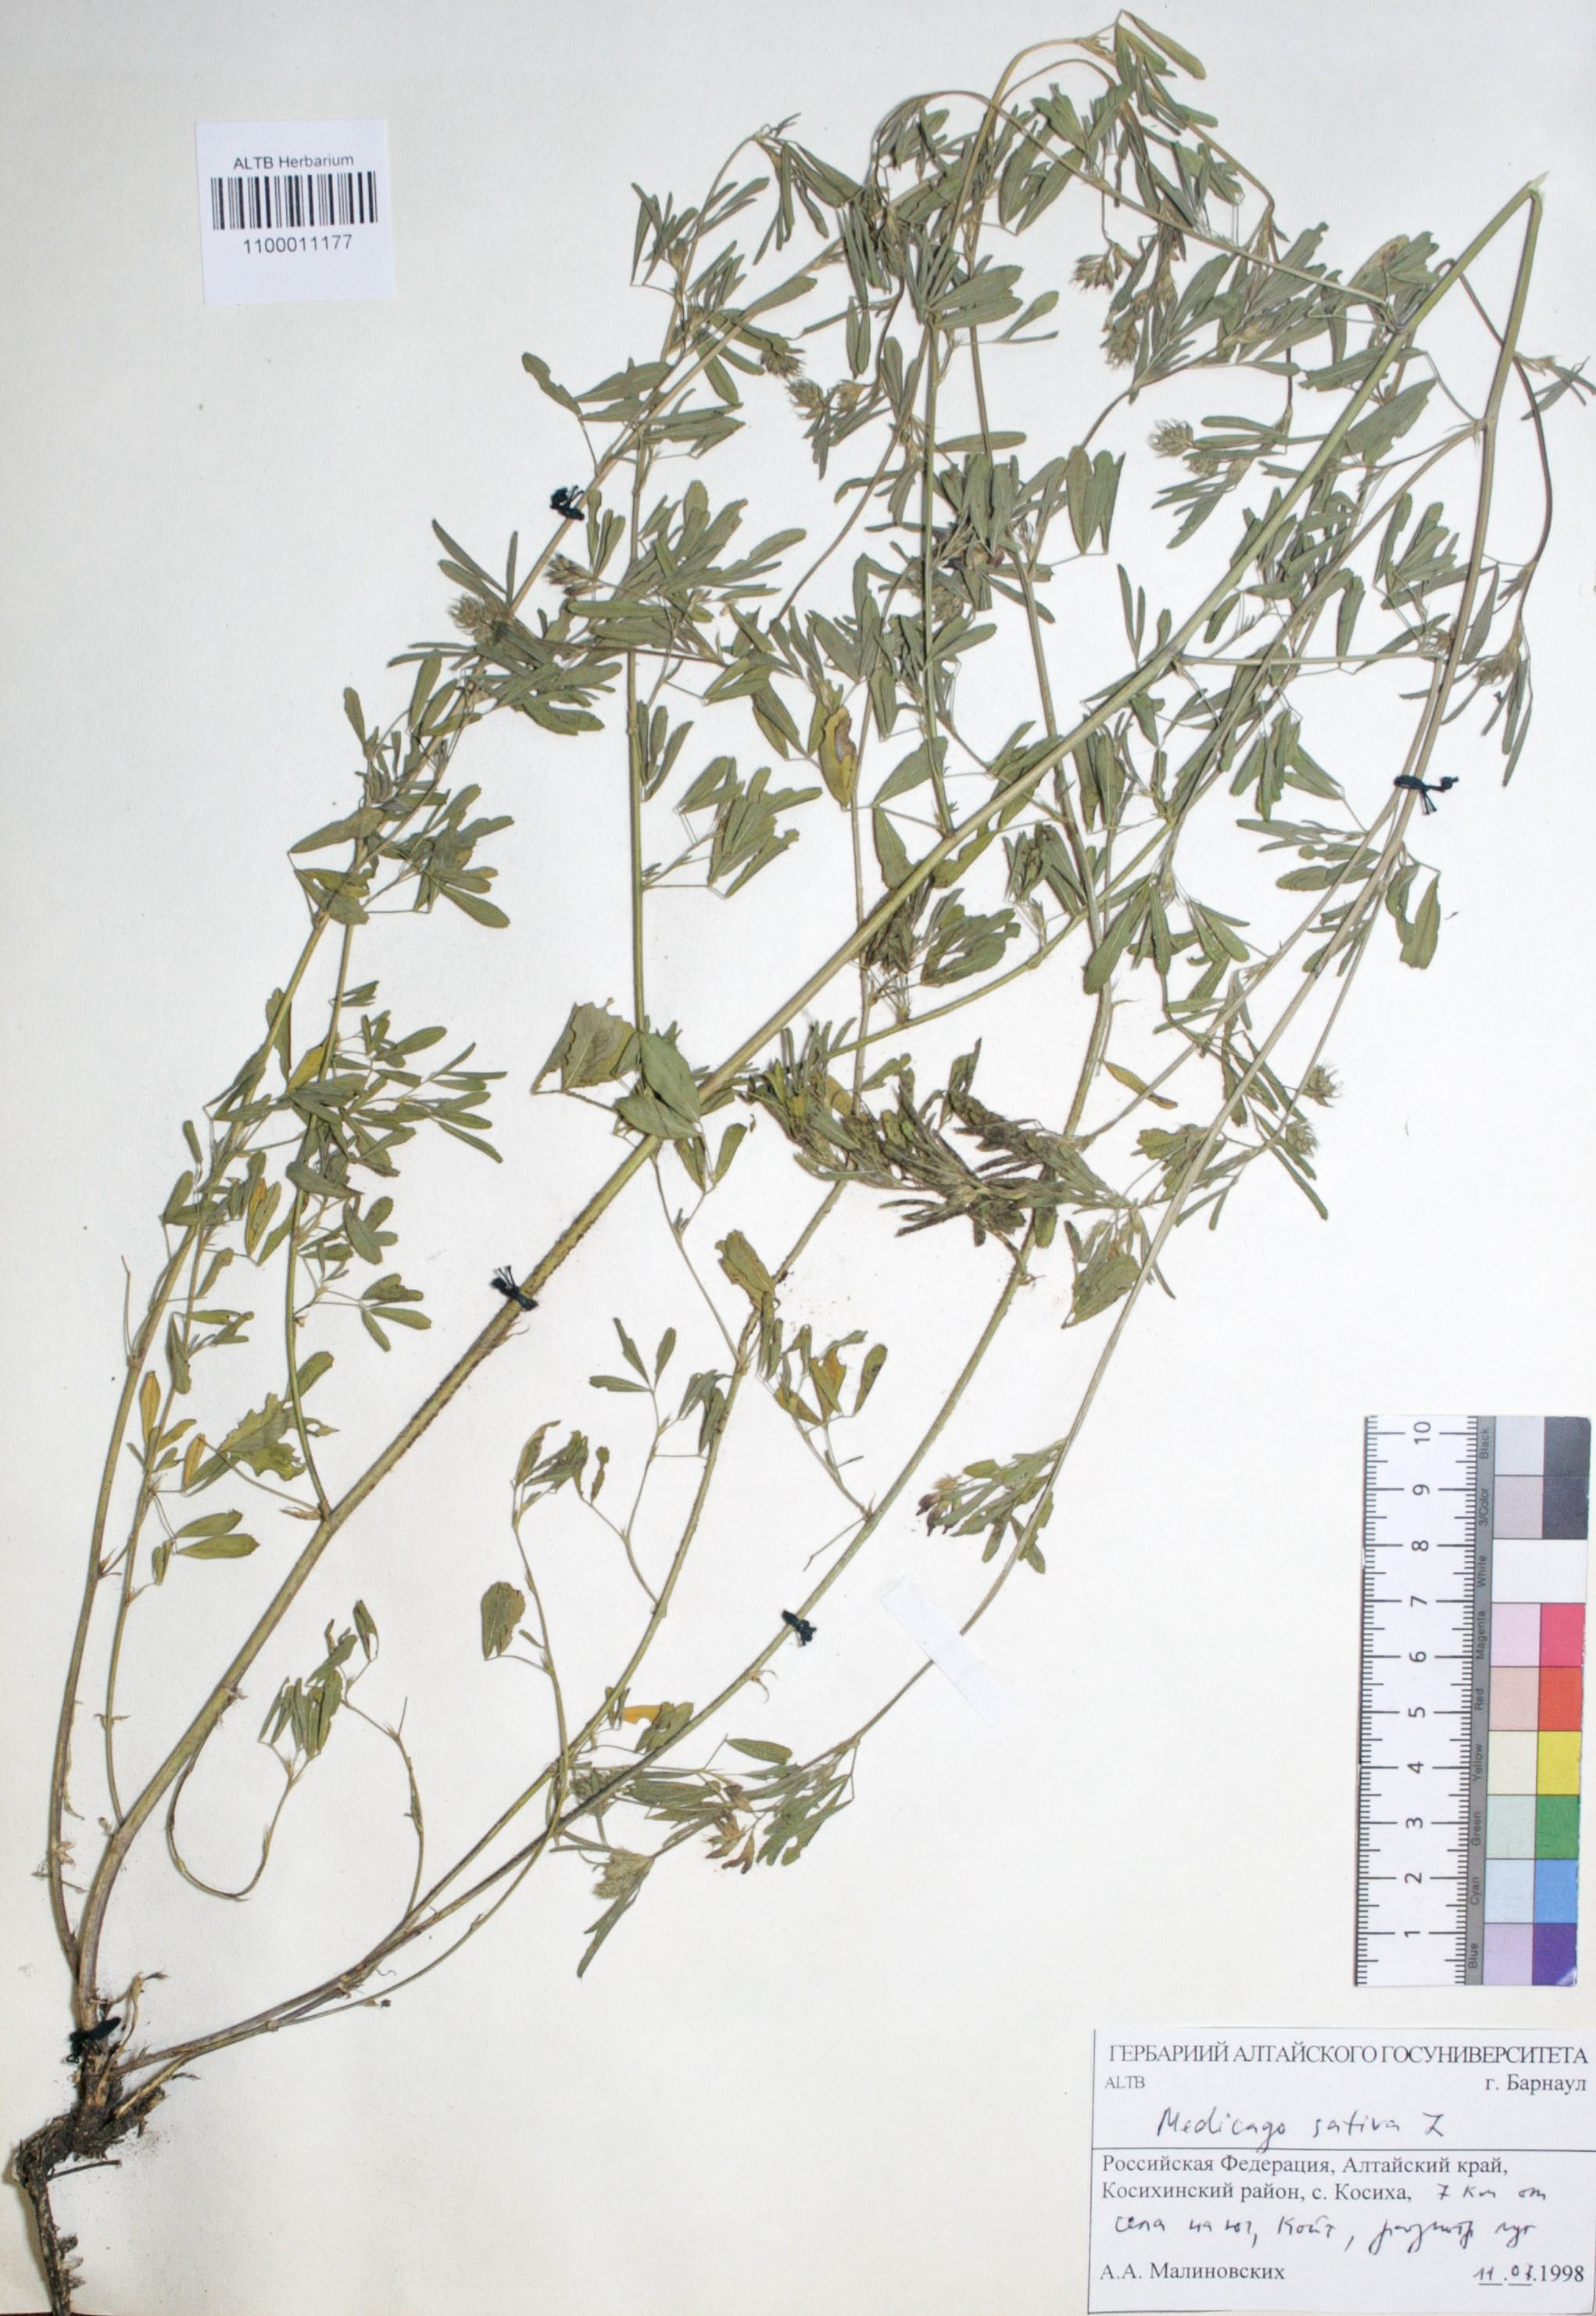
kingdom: Plantae
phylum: Tracheophyta
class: Magnoliopsida
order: Fabales
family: Fabaceae
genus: Medicago
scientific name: Medicago sativa
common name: Alfalfa
